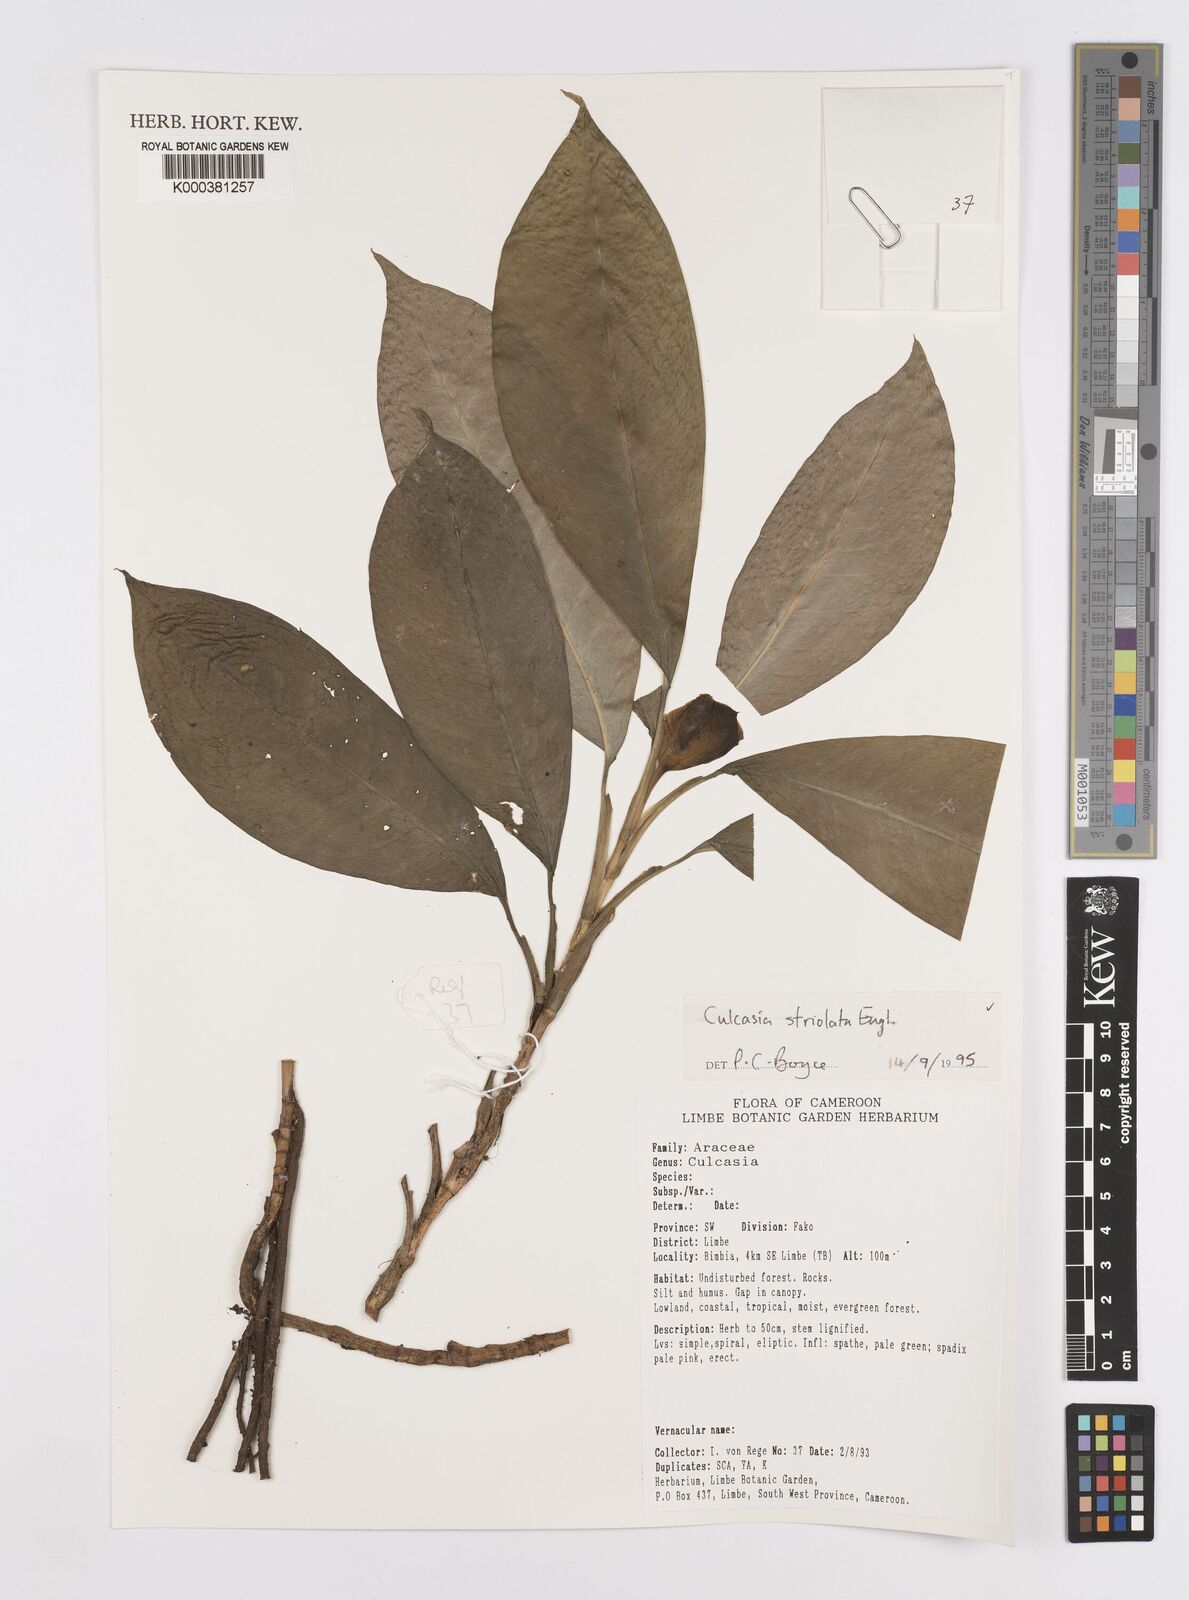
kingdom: Plantae
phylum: Tracheophyta
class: Liliopsida
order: Alismatales
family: Araceae
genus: Culcasia
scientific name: Culcasia striolata
